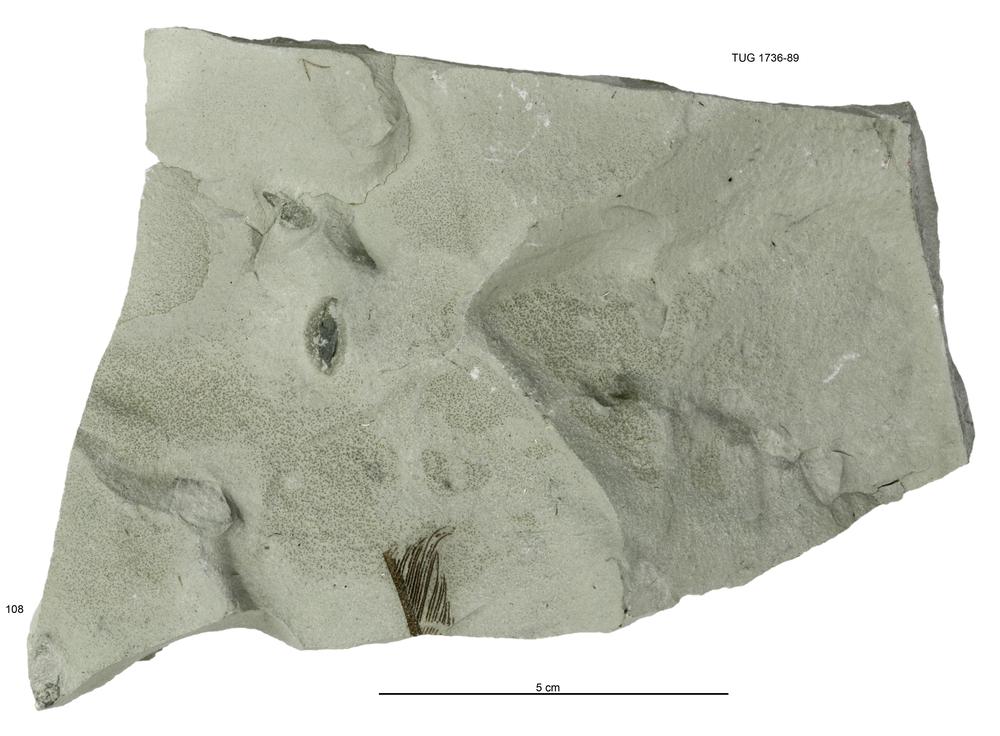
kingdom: Animalia
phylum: Echinodermata
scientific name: Echinodermata
